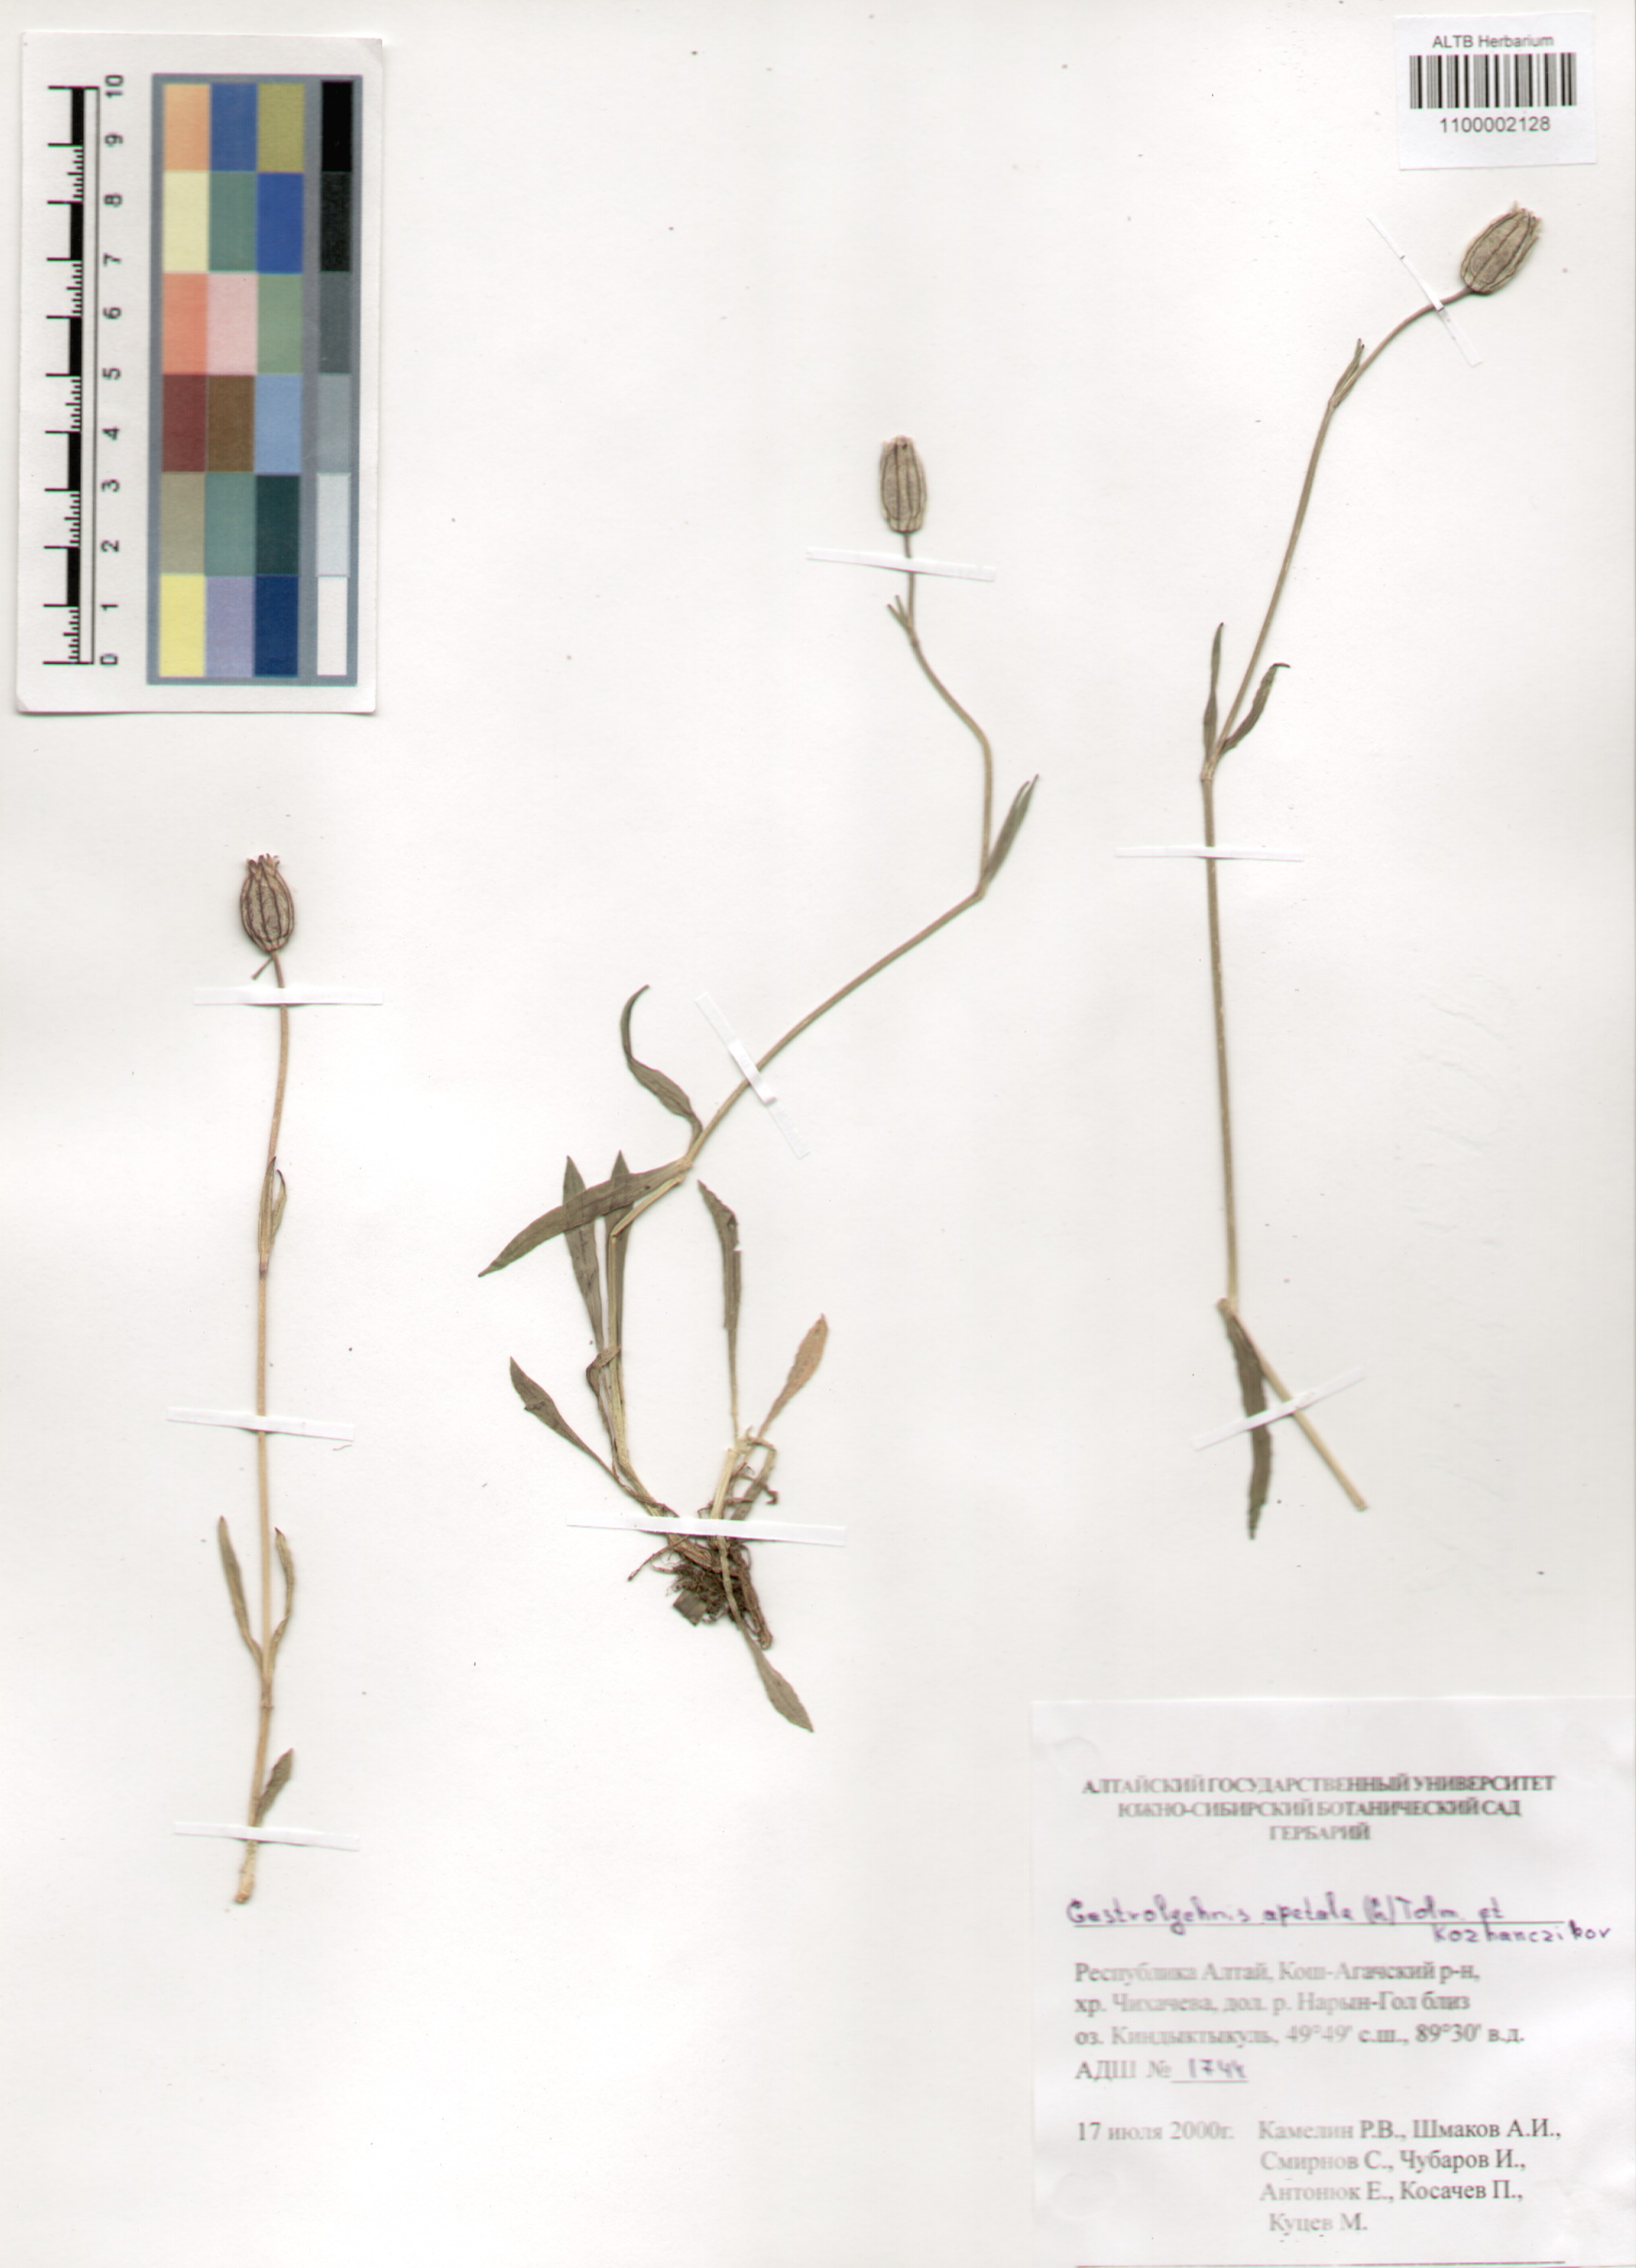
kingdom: Plantae
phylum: Tracheophyta
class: Magnoliopsida
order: Caryophyllales
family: Caryophyllaceae
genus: Silene
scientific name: Silene wahlbergella
